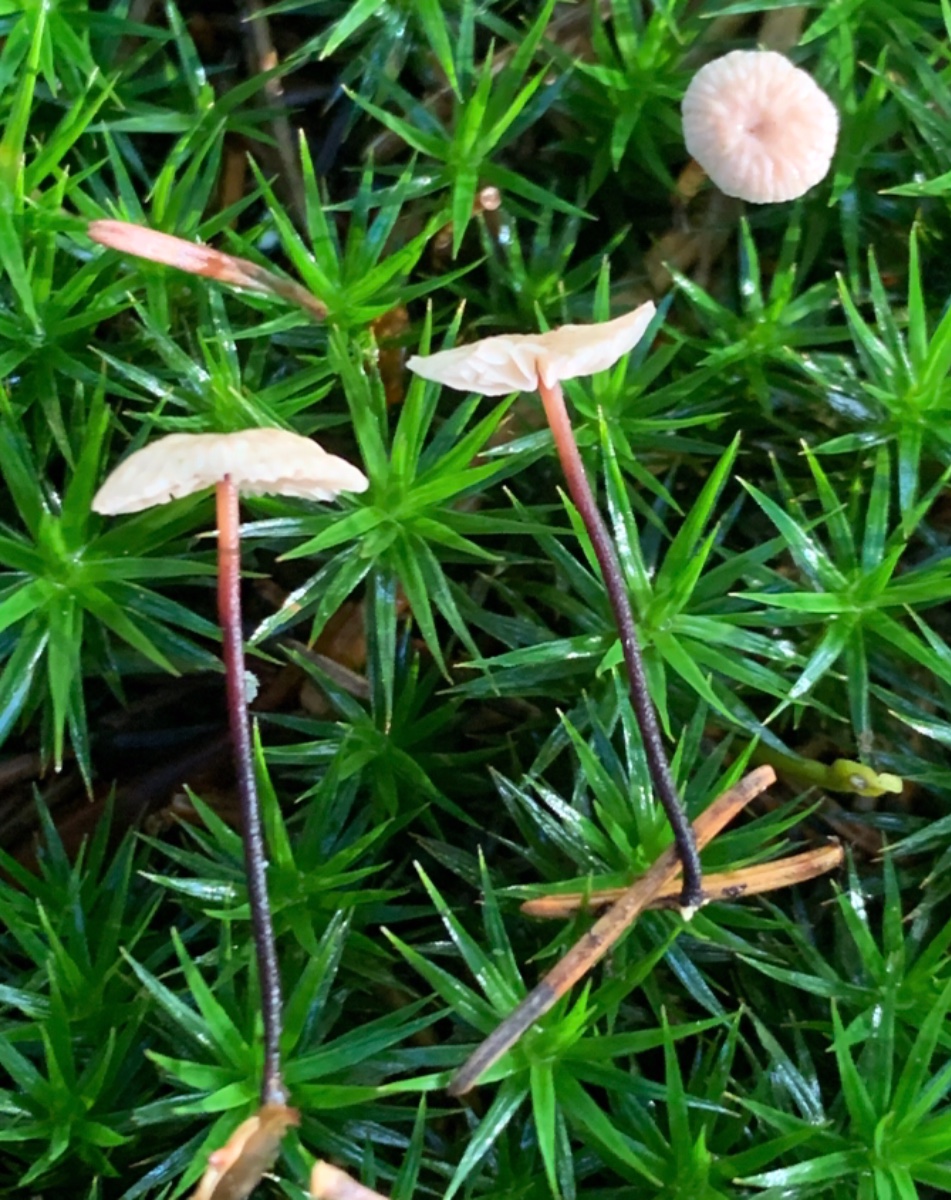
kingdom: Fungi
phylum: Basidiomycota
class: Agaricomycetes
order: Agaricales
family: Omphalotaceae
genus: Paragymnopus
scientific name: Paragymnopus perforans
